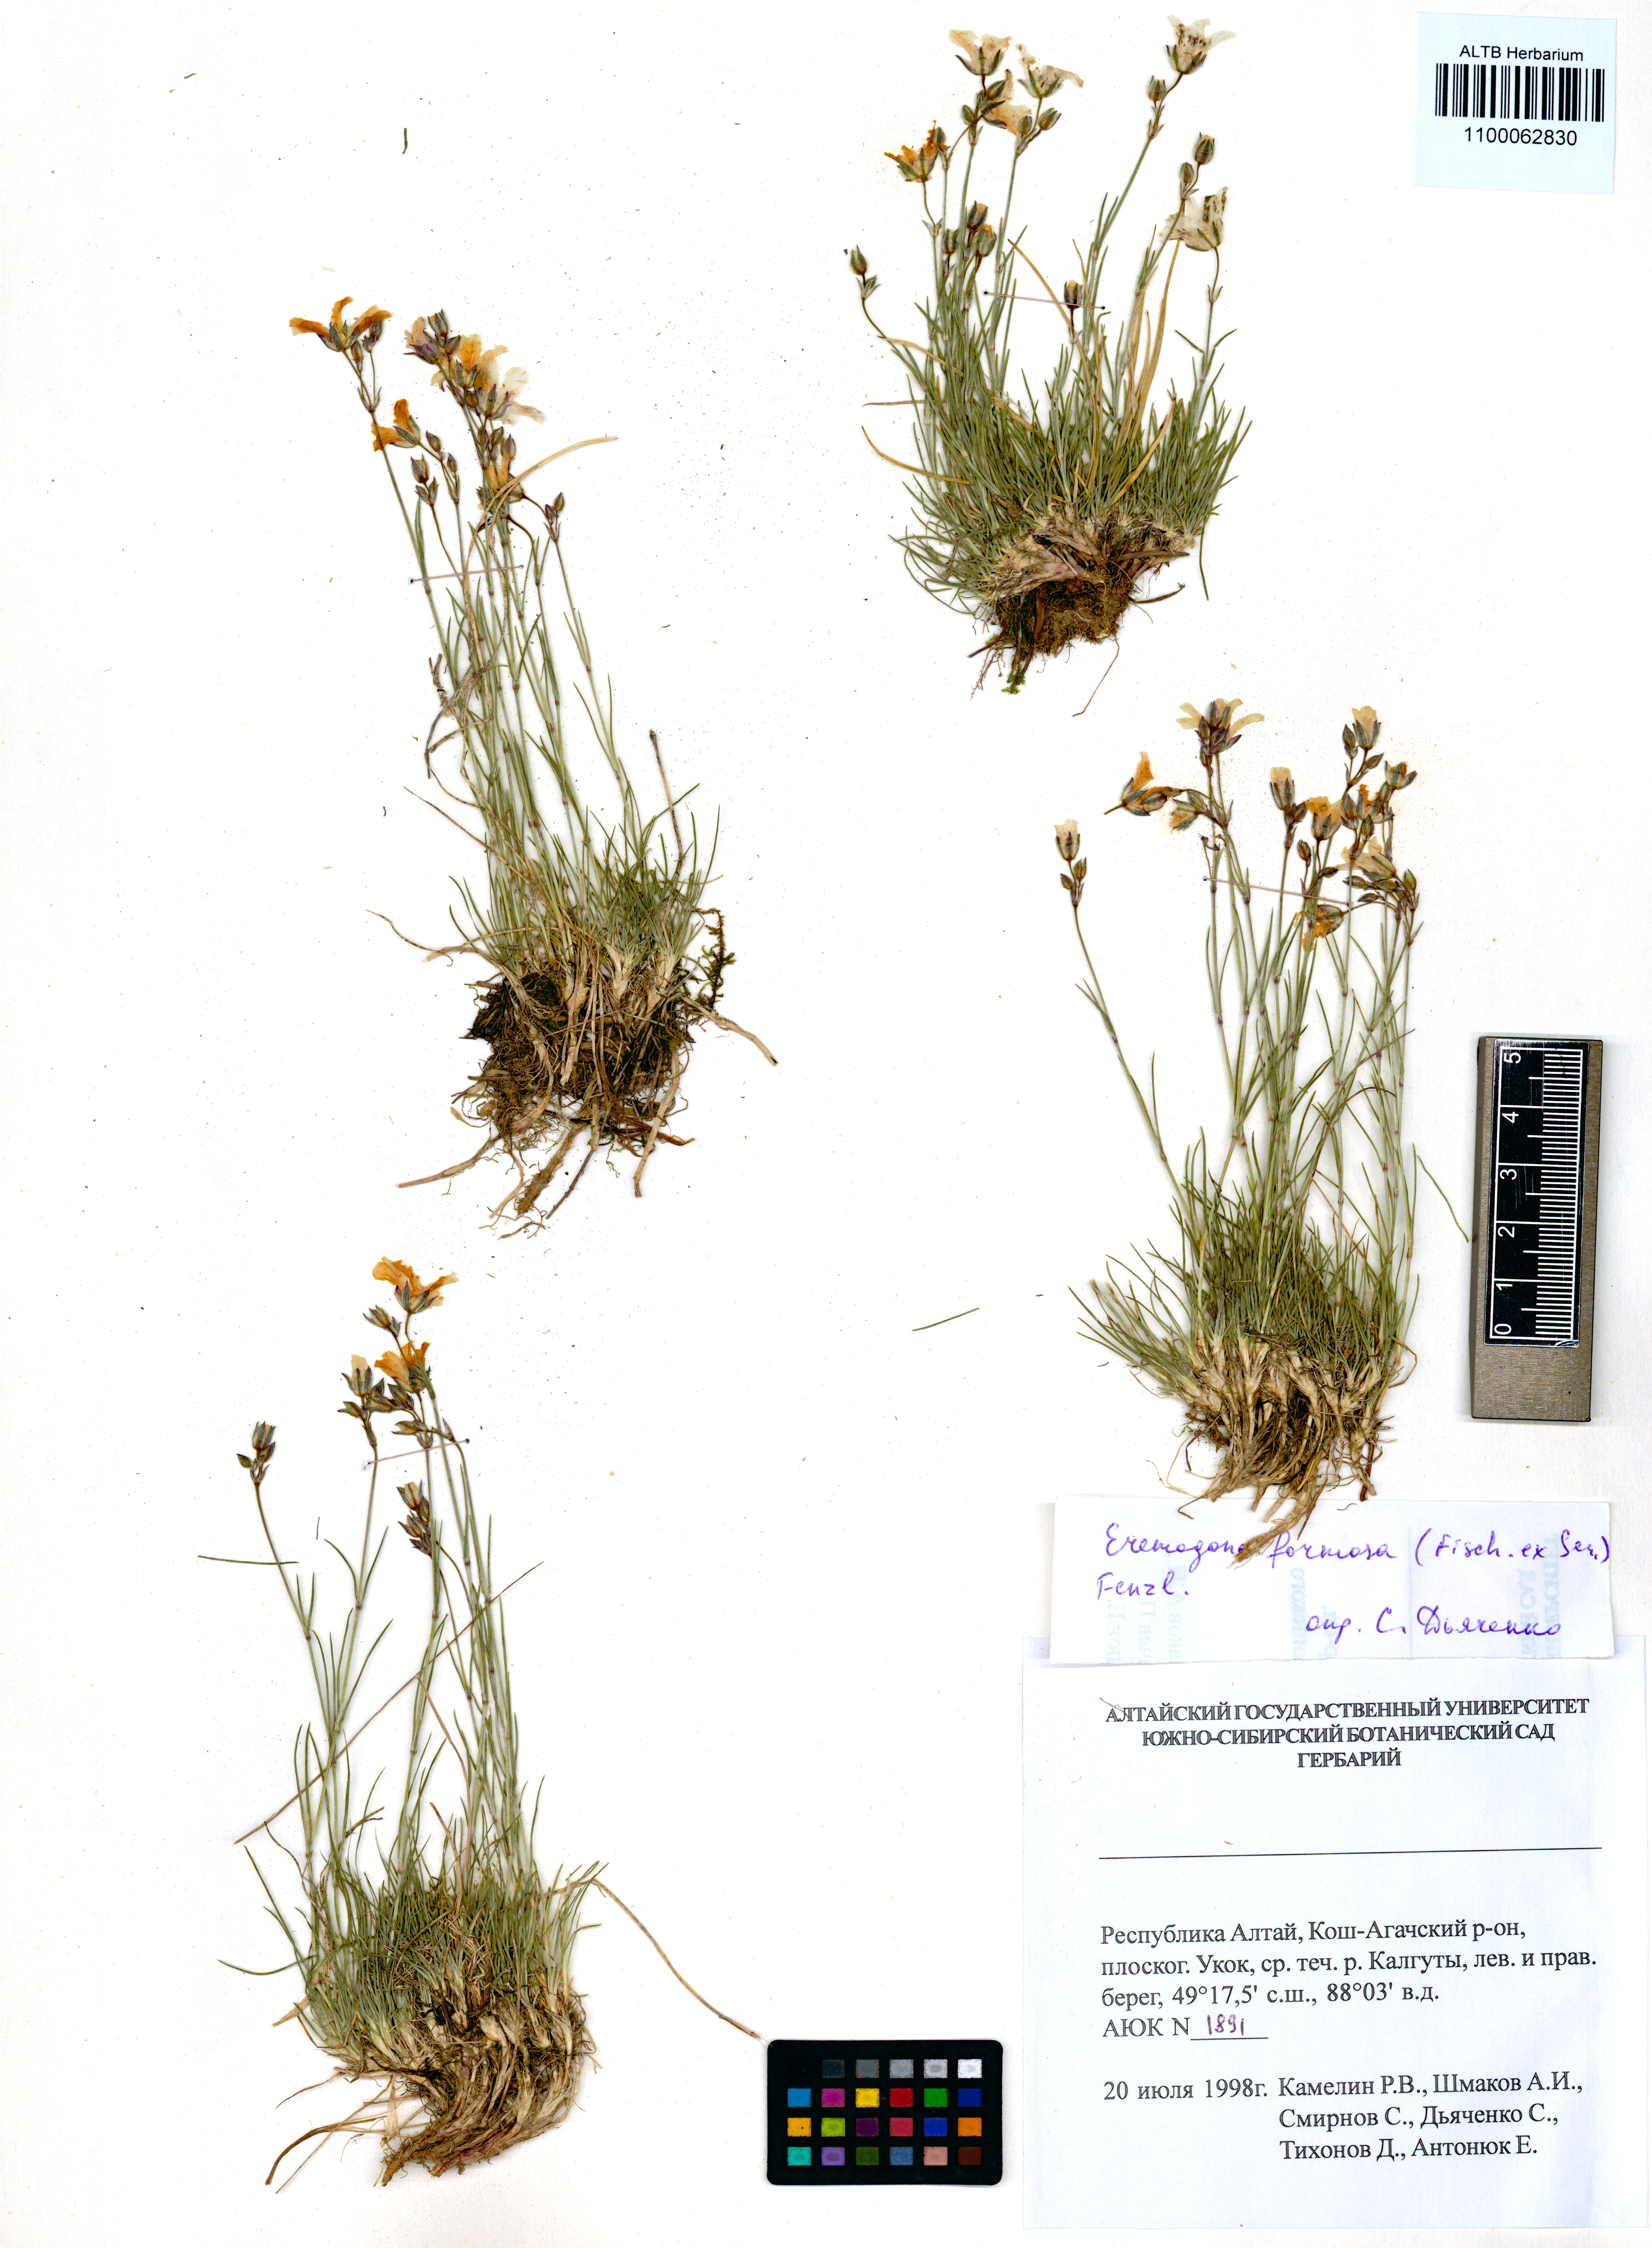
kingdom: Plantae
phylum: Tracheophyta
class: Magnoliopsida
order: Caryophyllales
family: Caryophyllaceae
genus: Eremogone
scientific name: Eremogone formosa
